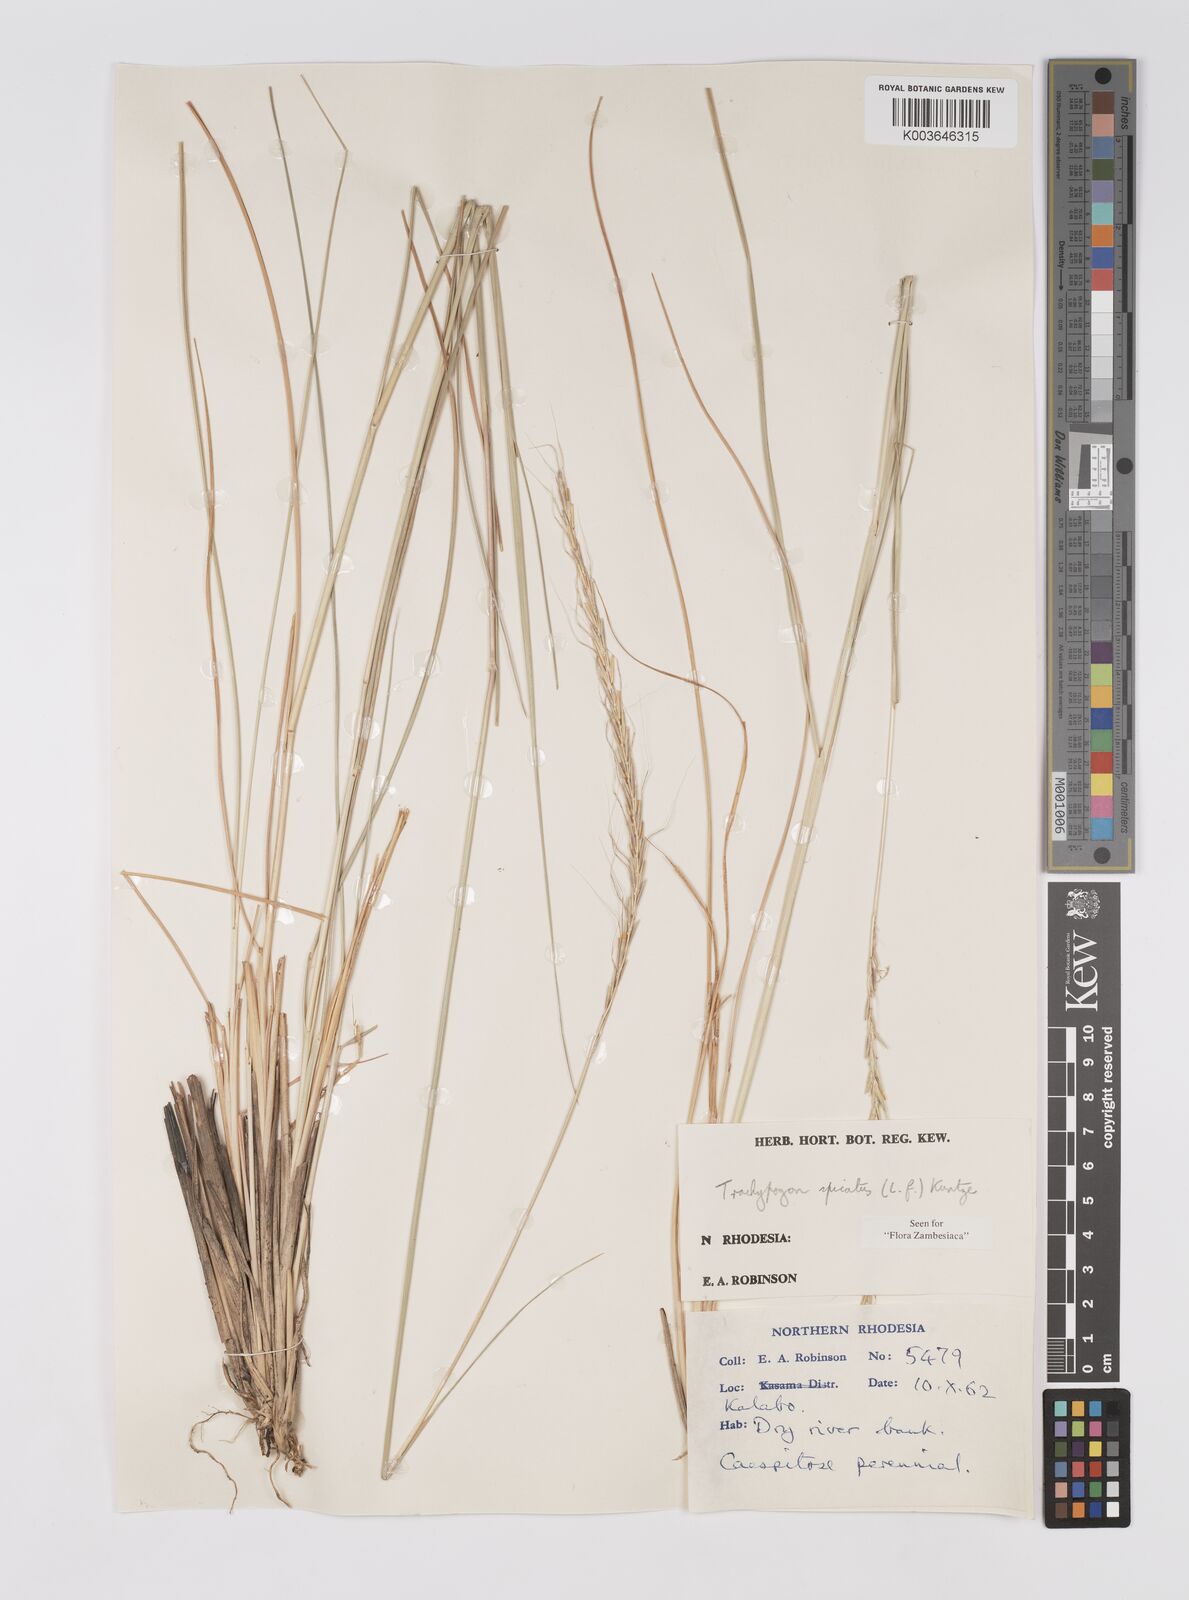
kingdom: Plantae
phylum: Tracheophyta
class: Liliopsida
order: Poales
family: Poaceae
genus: Trachypogon
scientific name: Trachypogon spicatus
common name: Crinkle-awn
